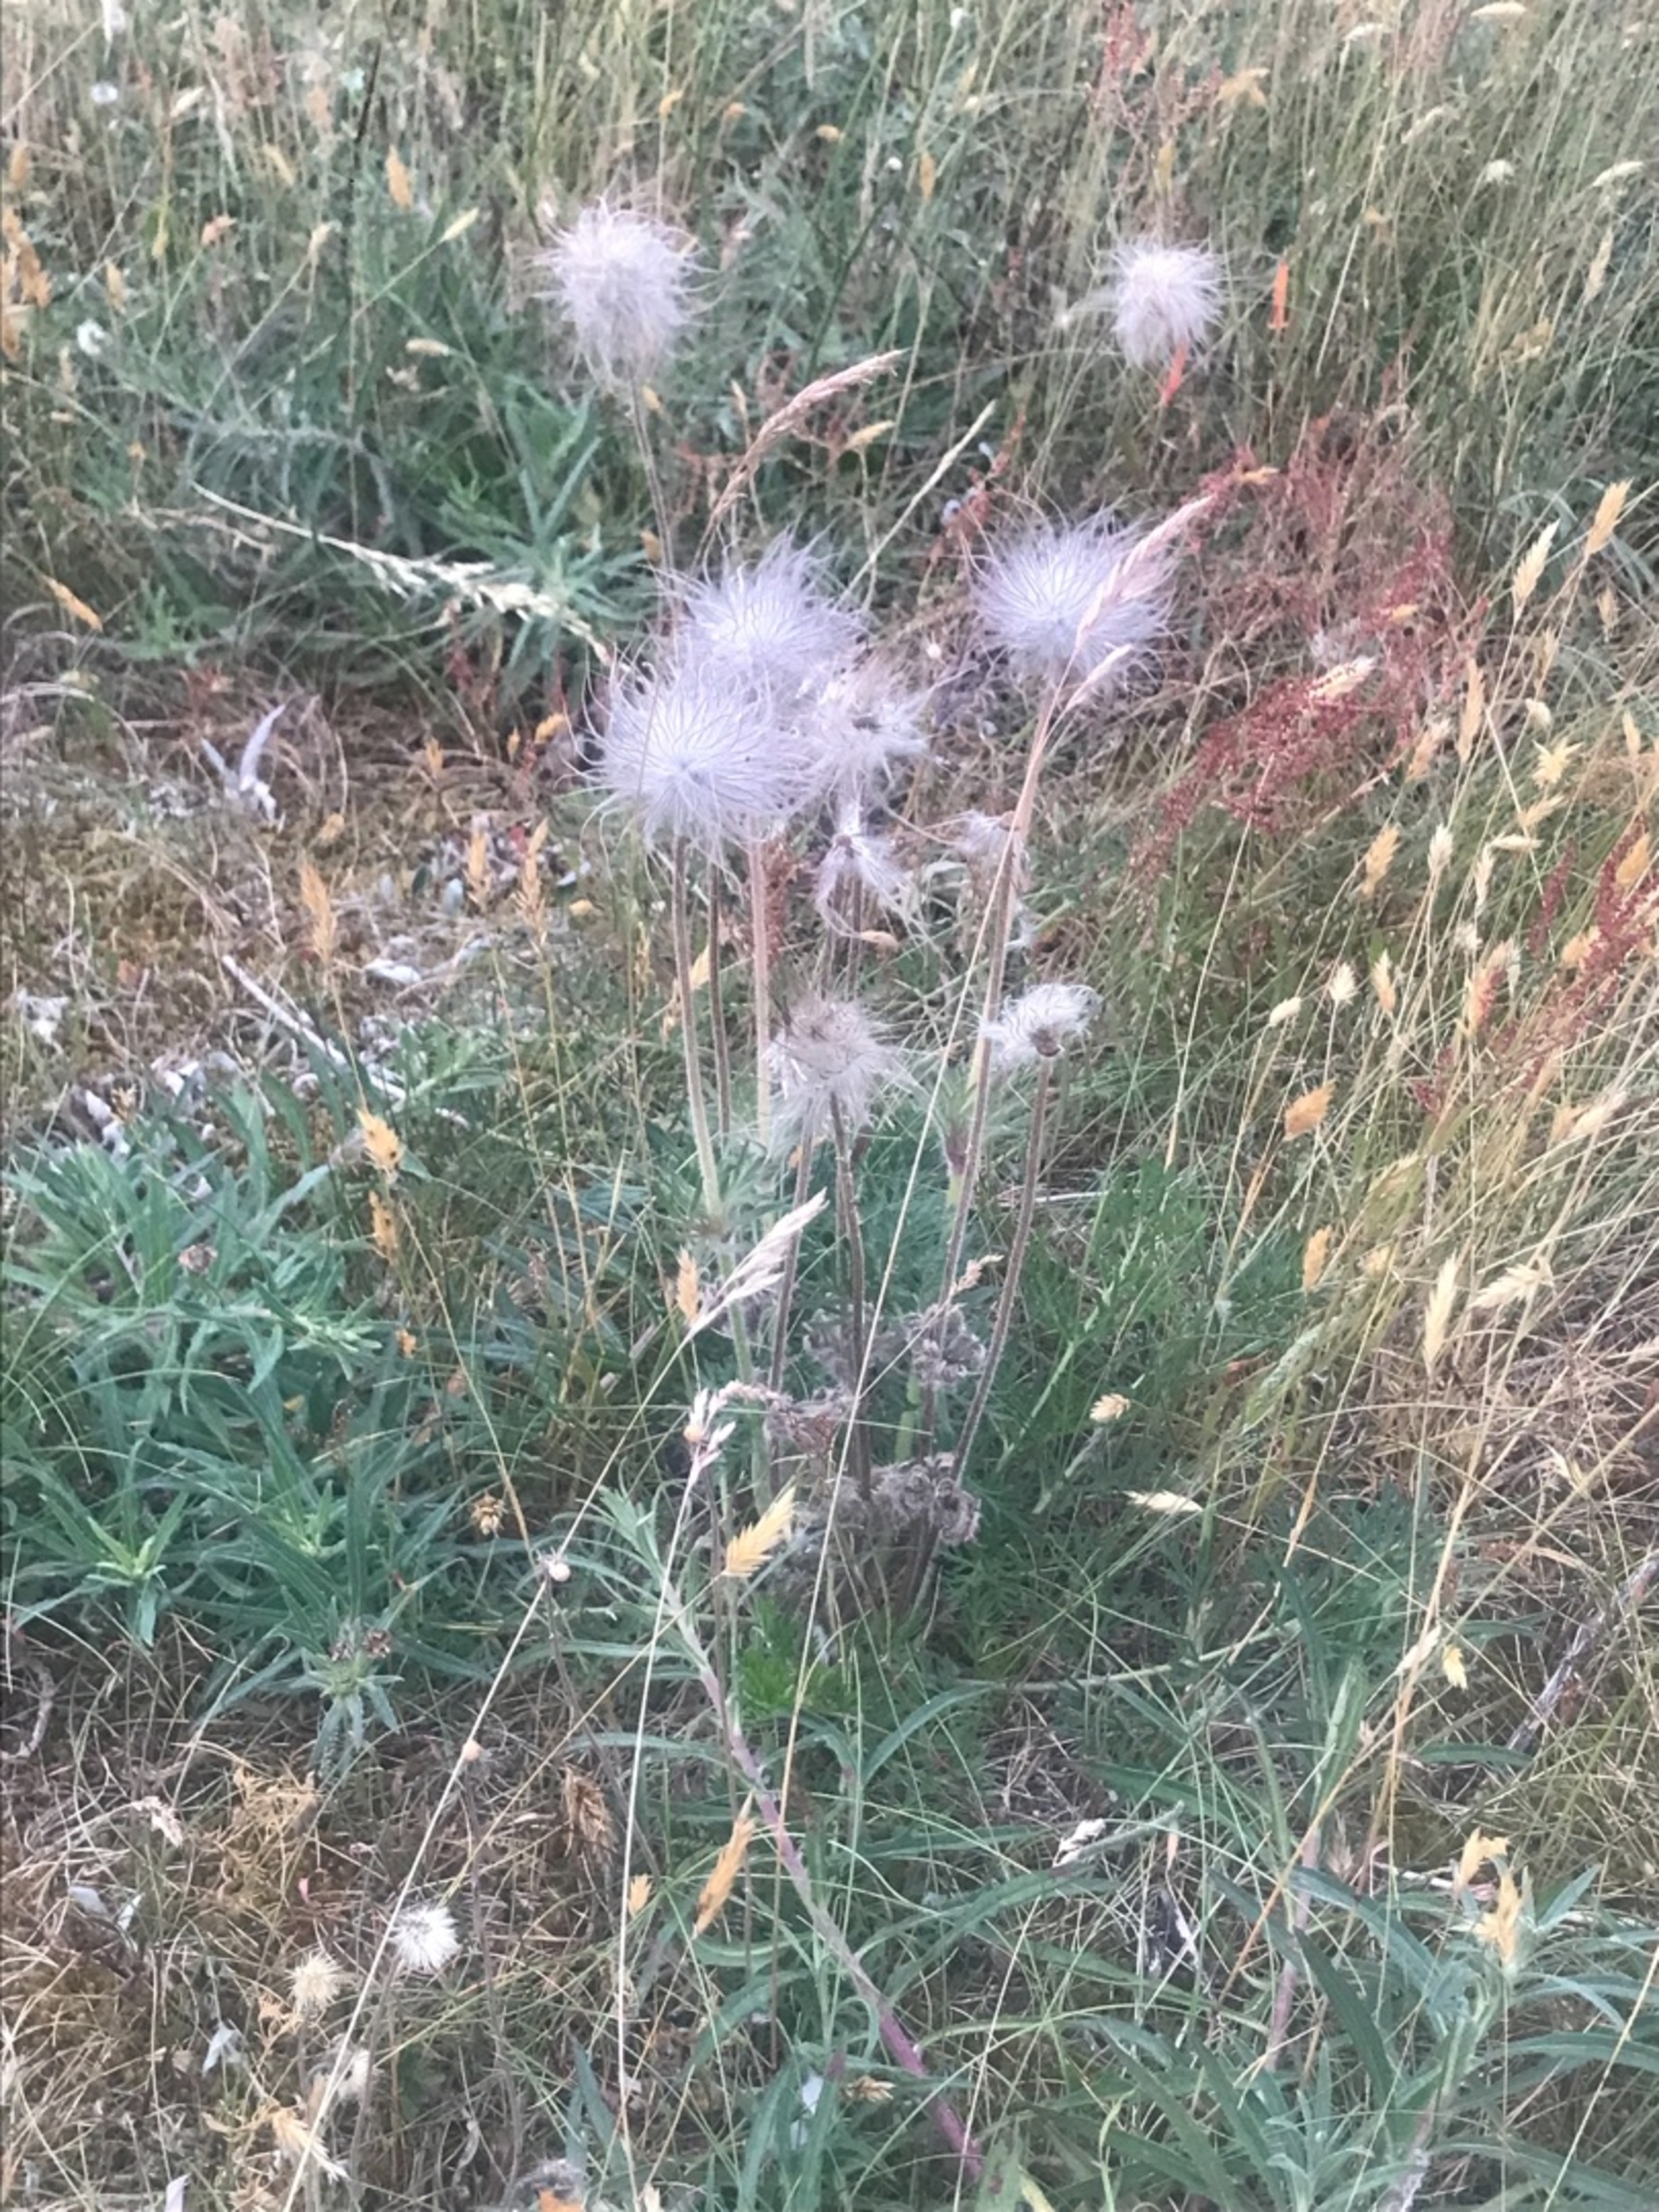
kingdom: Plantae
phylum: Tracheophyta
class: Magnoliopsida
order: Ranunculales
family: Ranunculaceae
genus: Pulsatilla
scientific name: Pulsatilla pratensis
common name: Nikkende kobjælde
